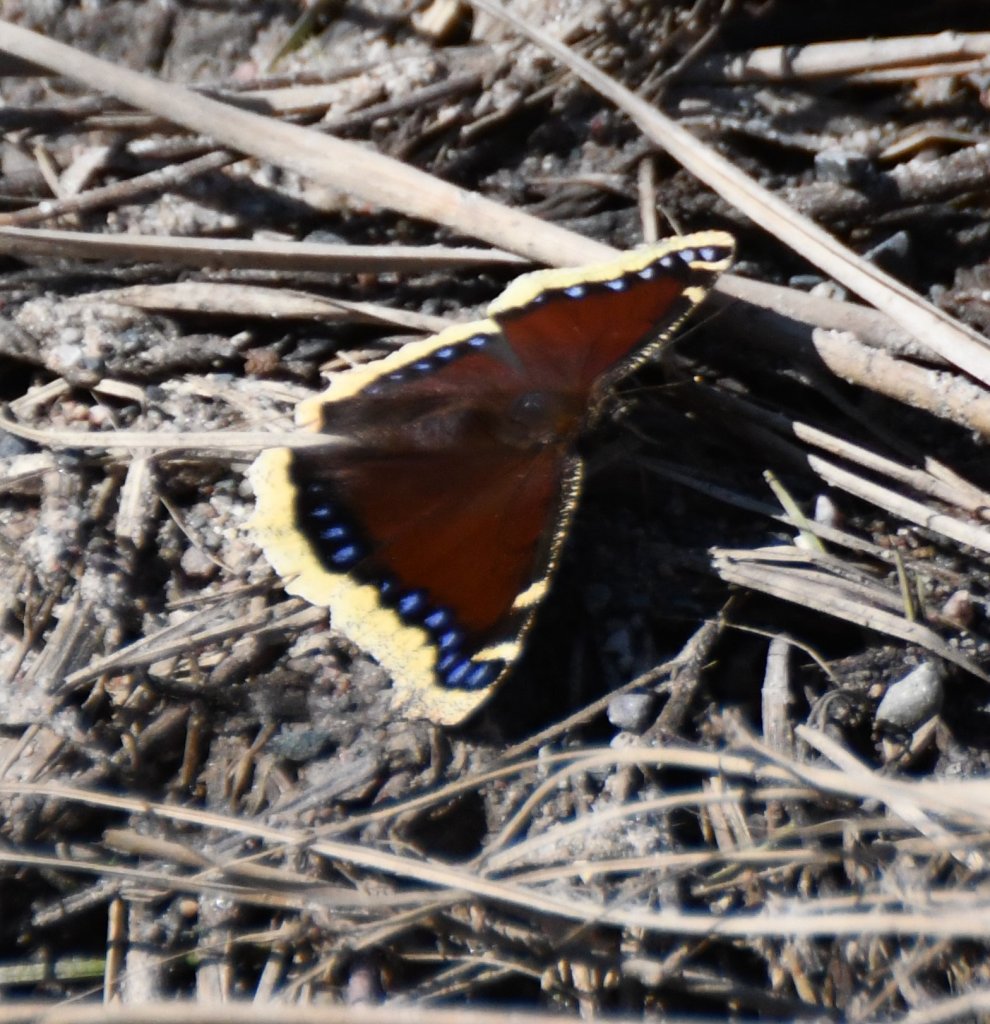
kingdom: Animalia
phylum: Arthropoda
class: Insecta
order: Lepidoptera
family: Nymphalidae
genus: Nymphalis
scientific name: Nymphalis antiopa
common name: Mourning Cloak
